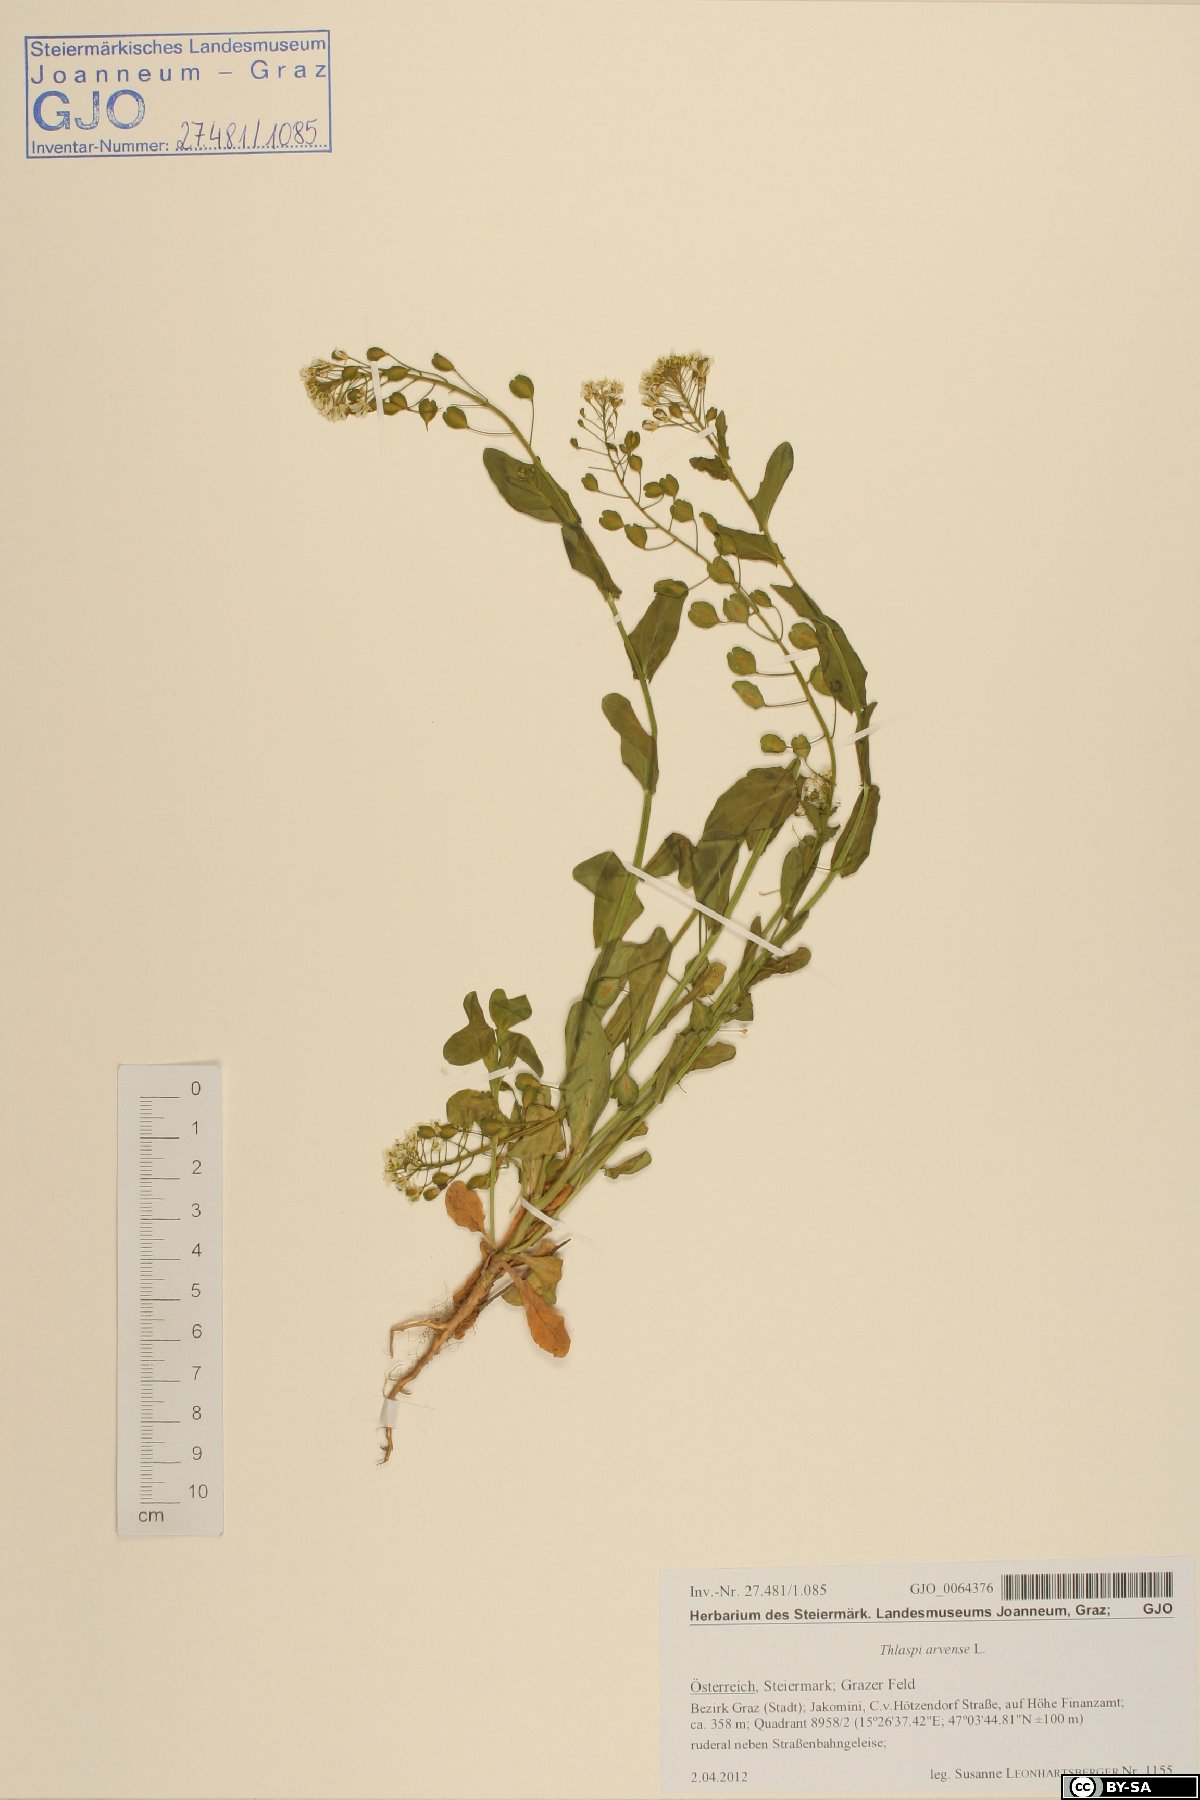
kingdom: Plantae
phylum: Tracheophyta
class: Magnoliopsida
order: Brassicales
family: Brassicaceae
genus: Thlaspi
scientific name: Thlaspi arvense
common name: Field pennycress
